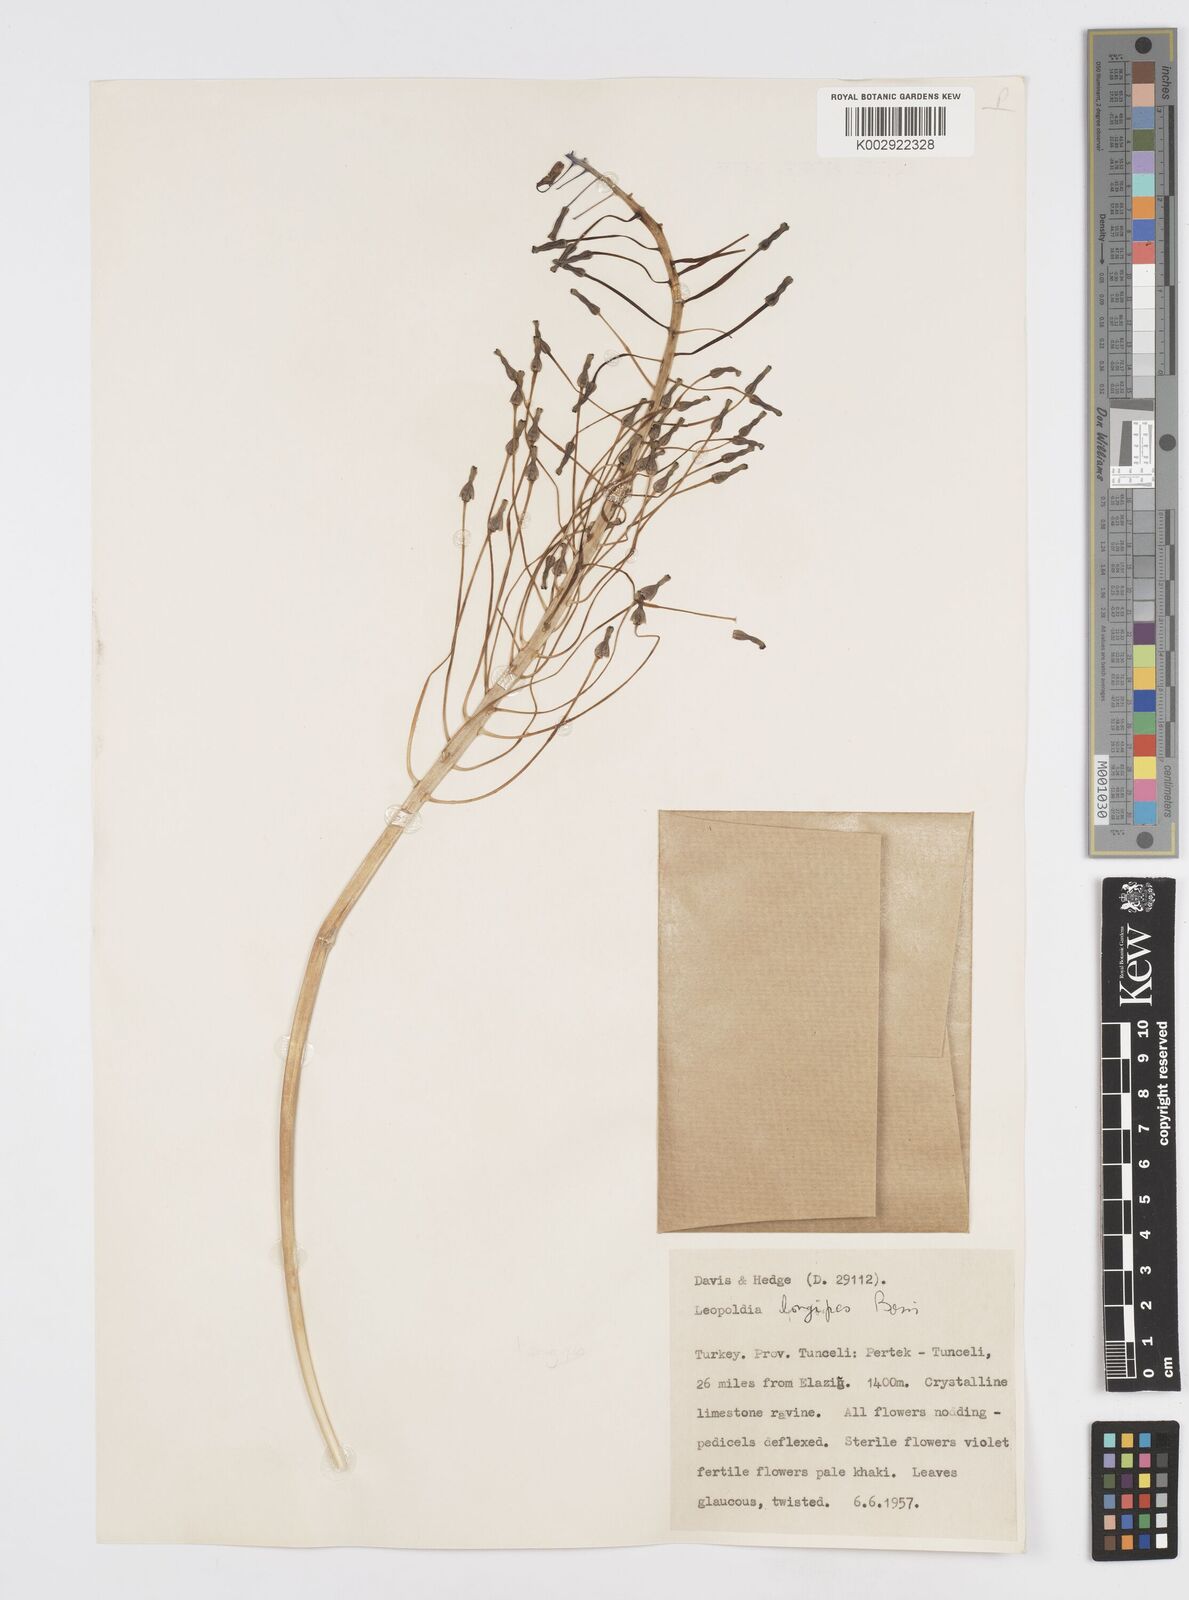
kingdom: Plantae
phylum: Tracheophyta
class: Liliopsida
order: Asparagales
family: Asparagaceae
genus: Muscari
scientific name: Muscari longipes
